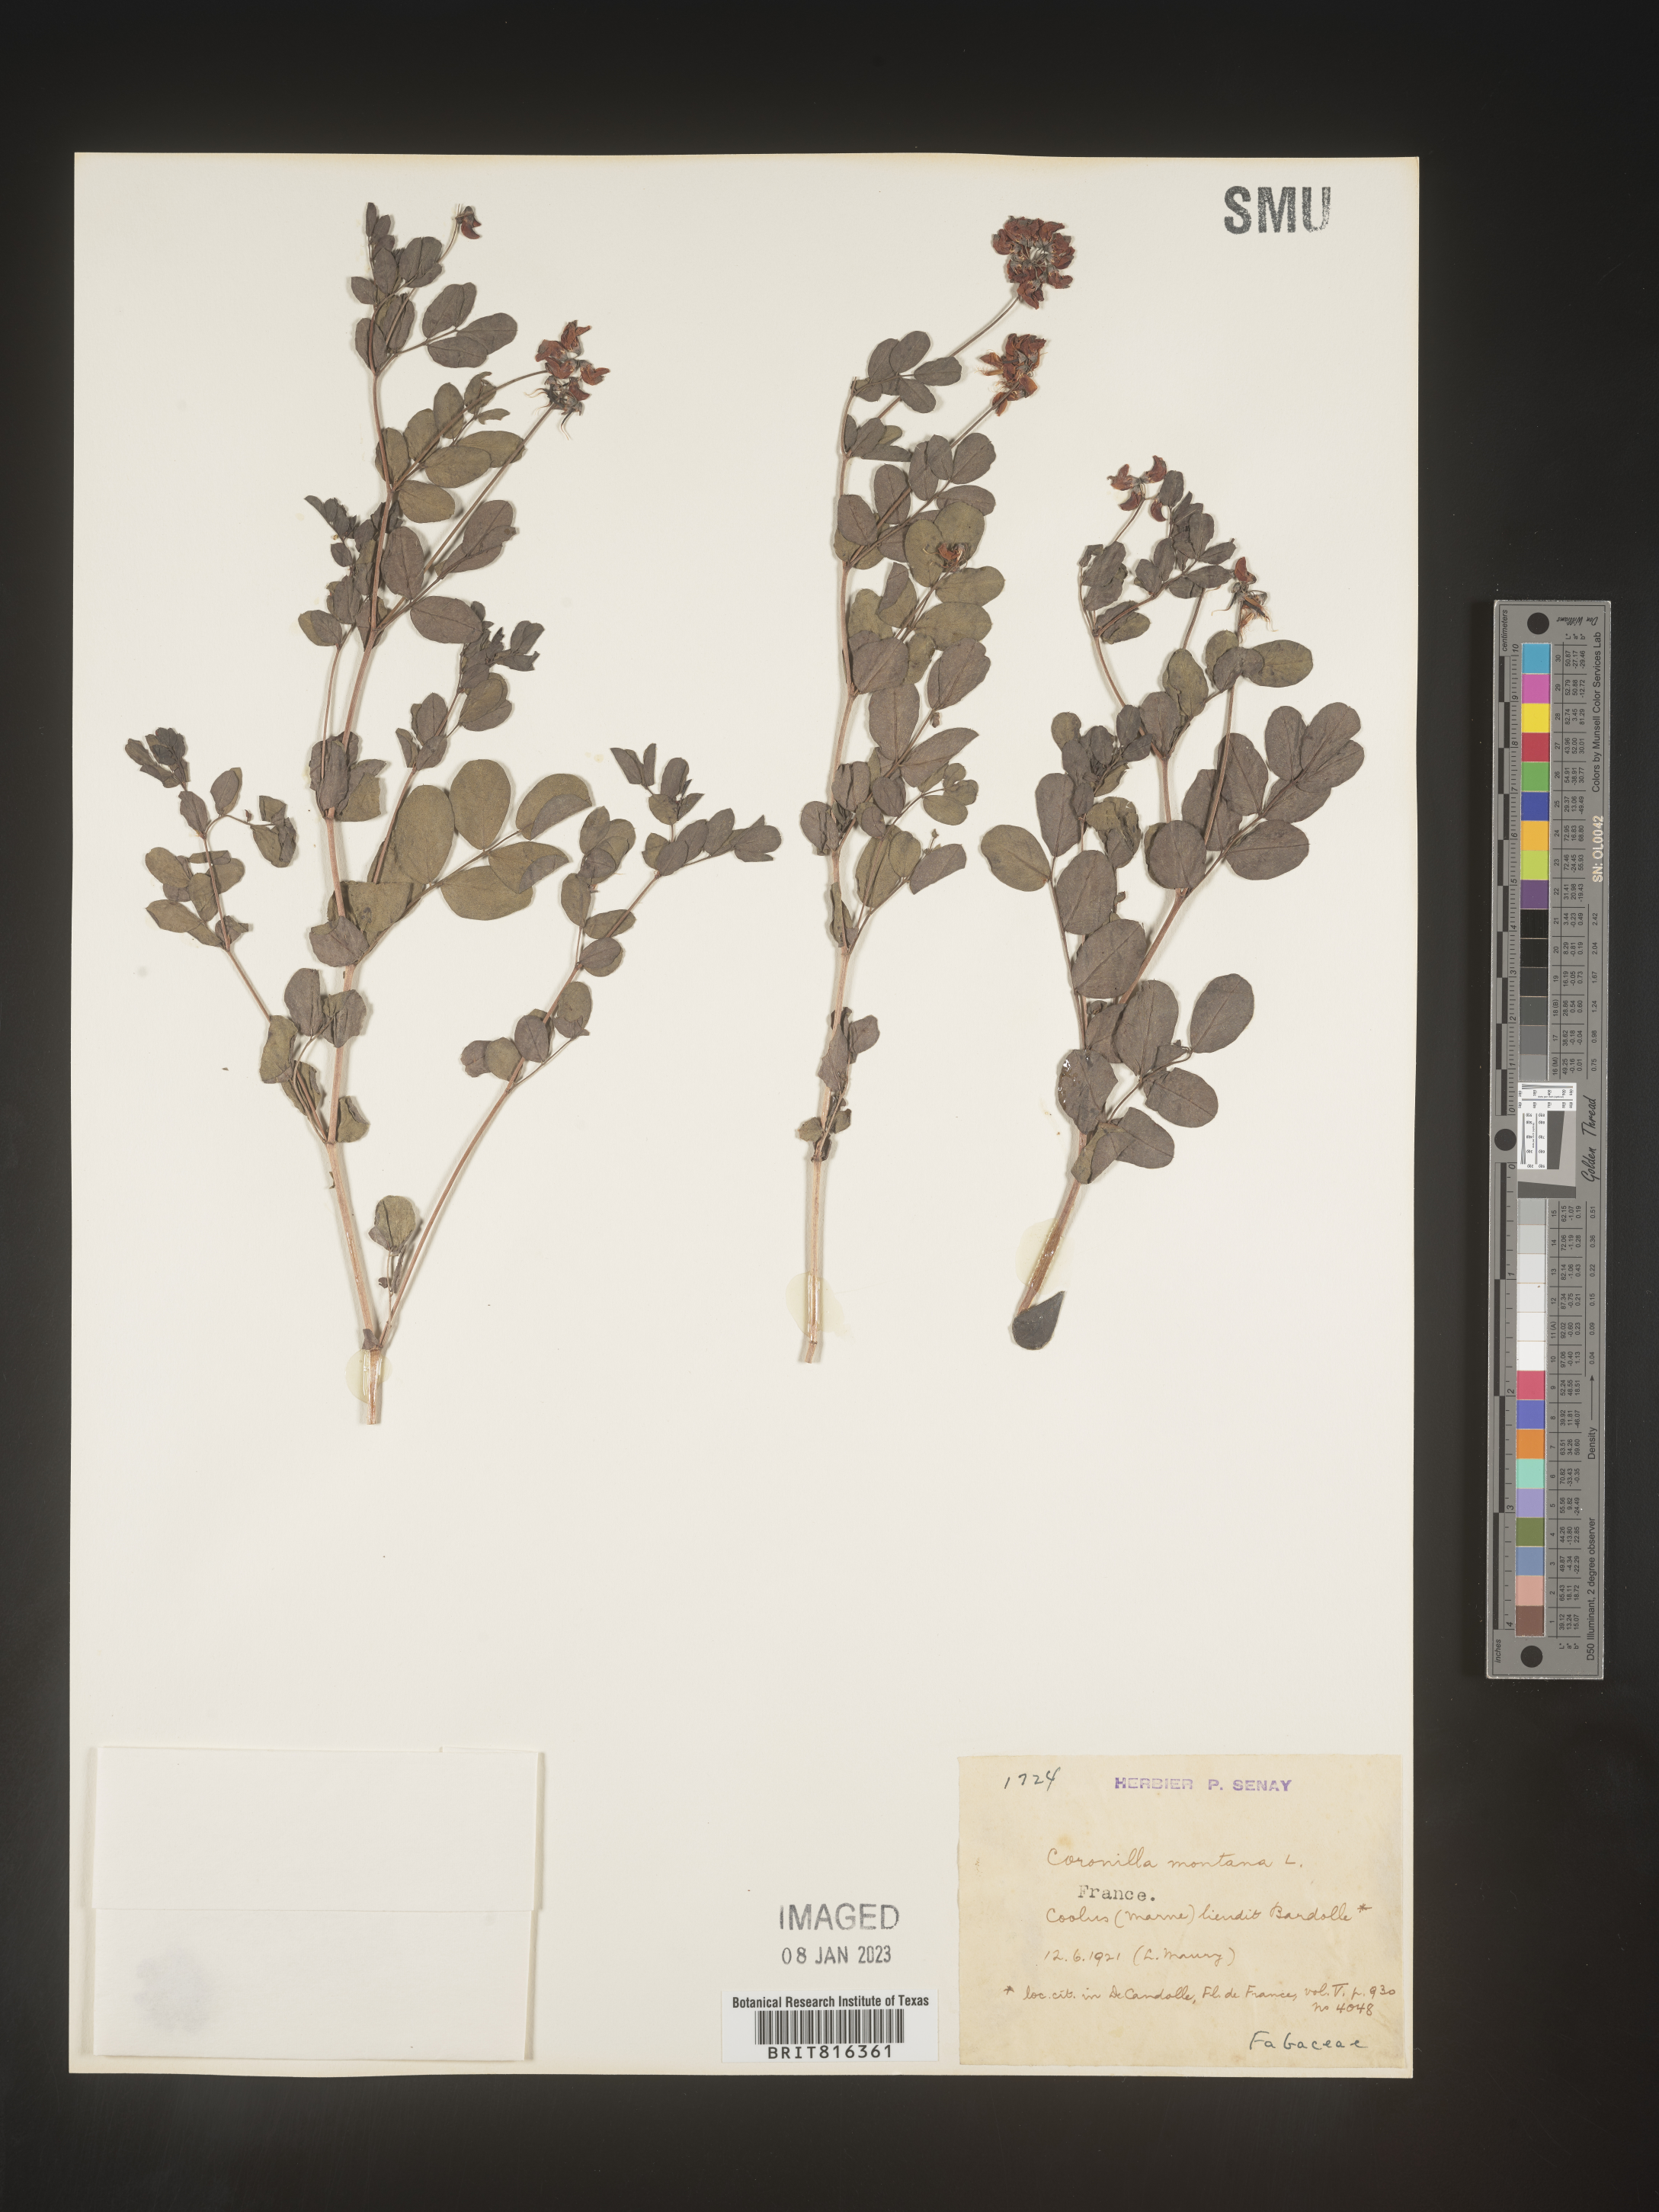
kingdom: Plantae
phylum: Tracheophyta
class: Magnoliopsida
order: Fabales
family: Fabaceae
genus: Coronilla
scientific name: Coronilla
